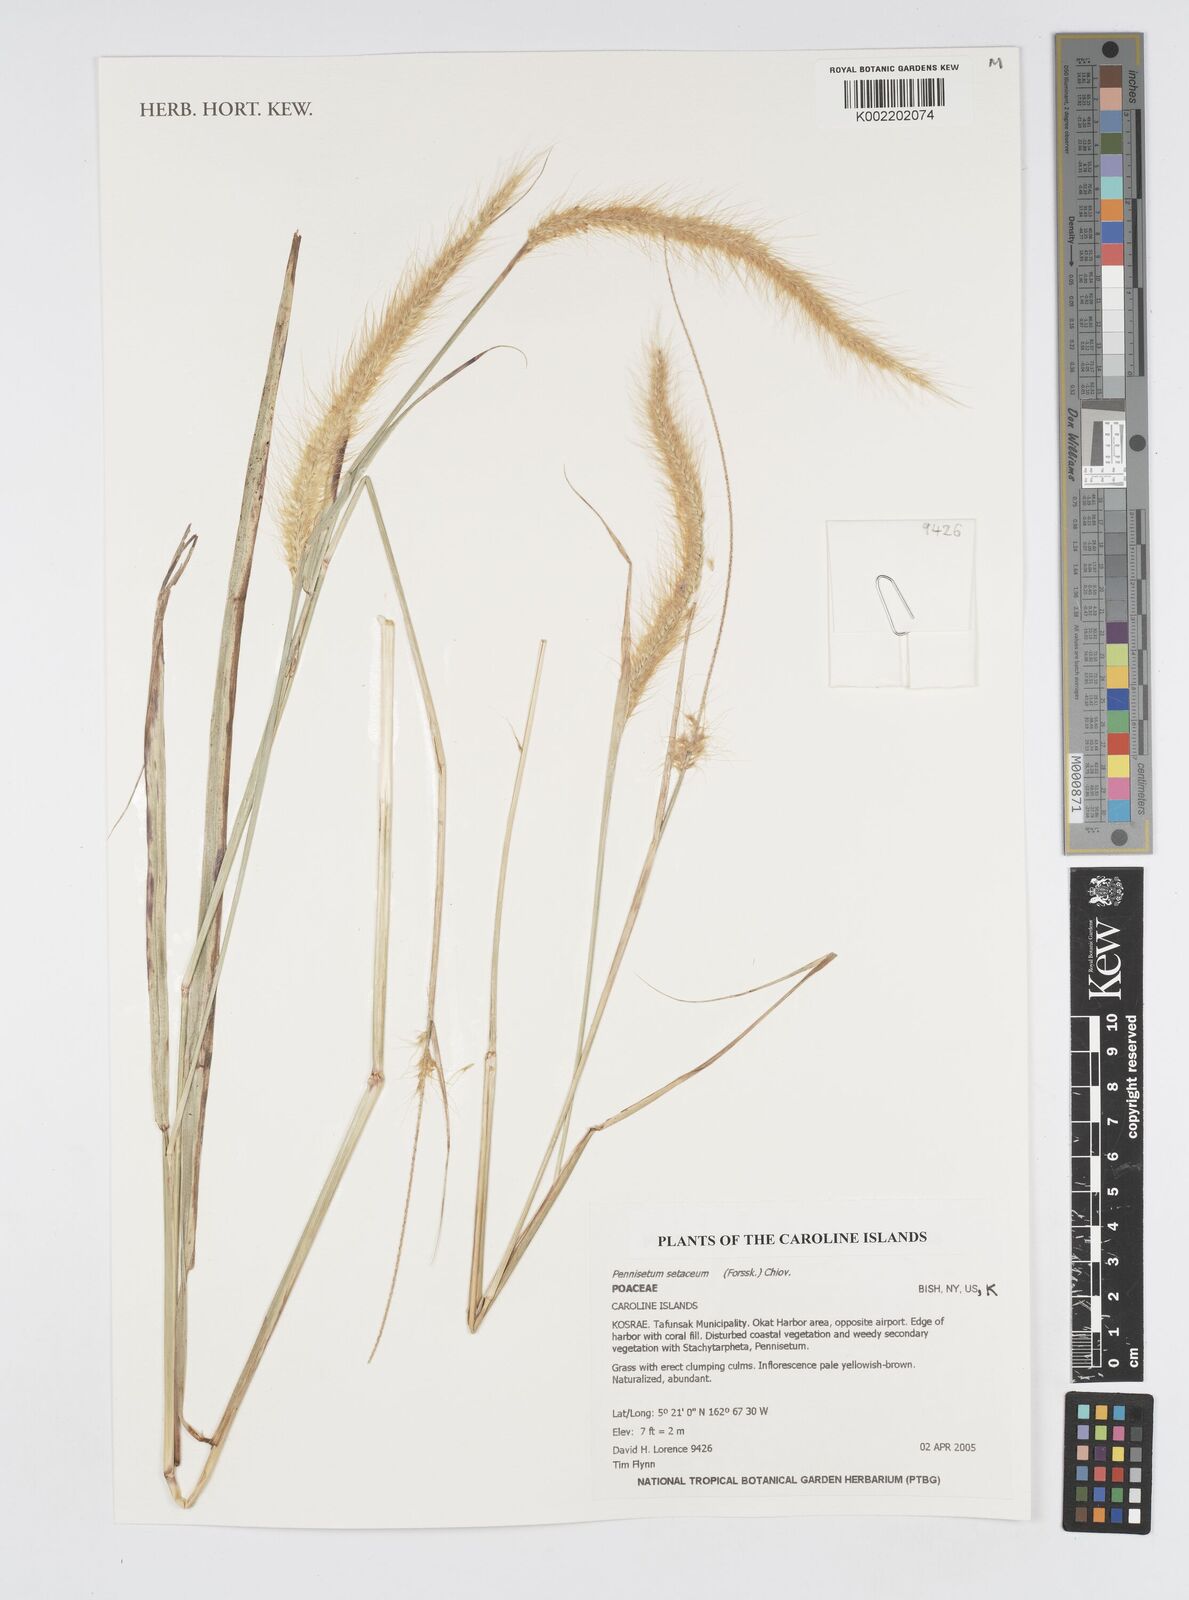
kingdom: Plantae
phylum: Tracheophyta
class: Liliopsida
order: Poales
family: Poaceae
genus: Cenchrus
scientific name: Cenchrus setaceus
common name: Crimson fountaingrass
